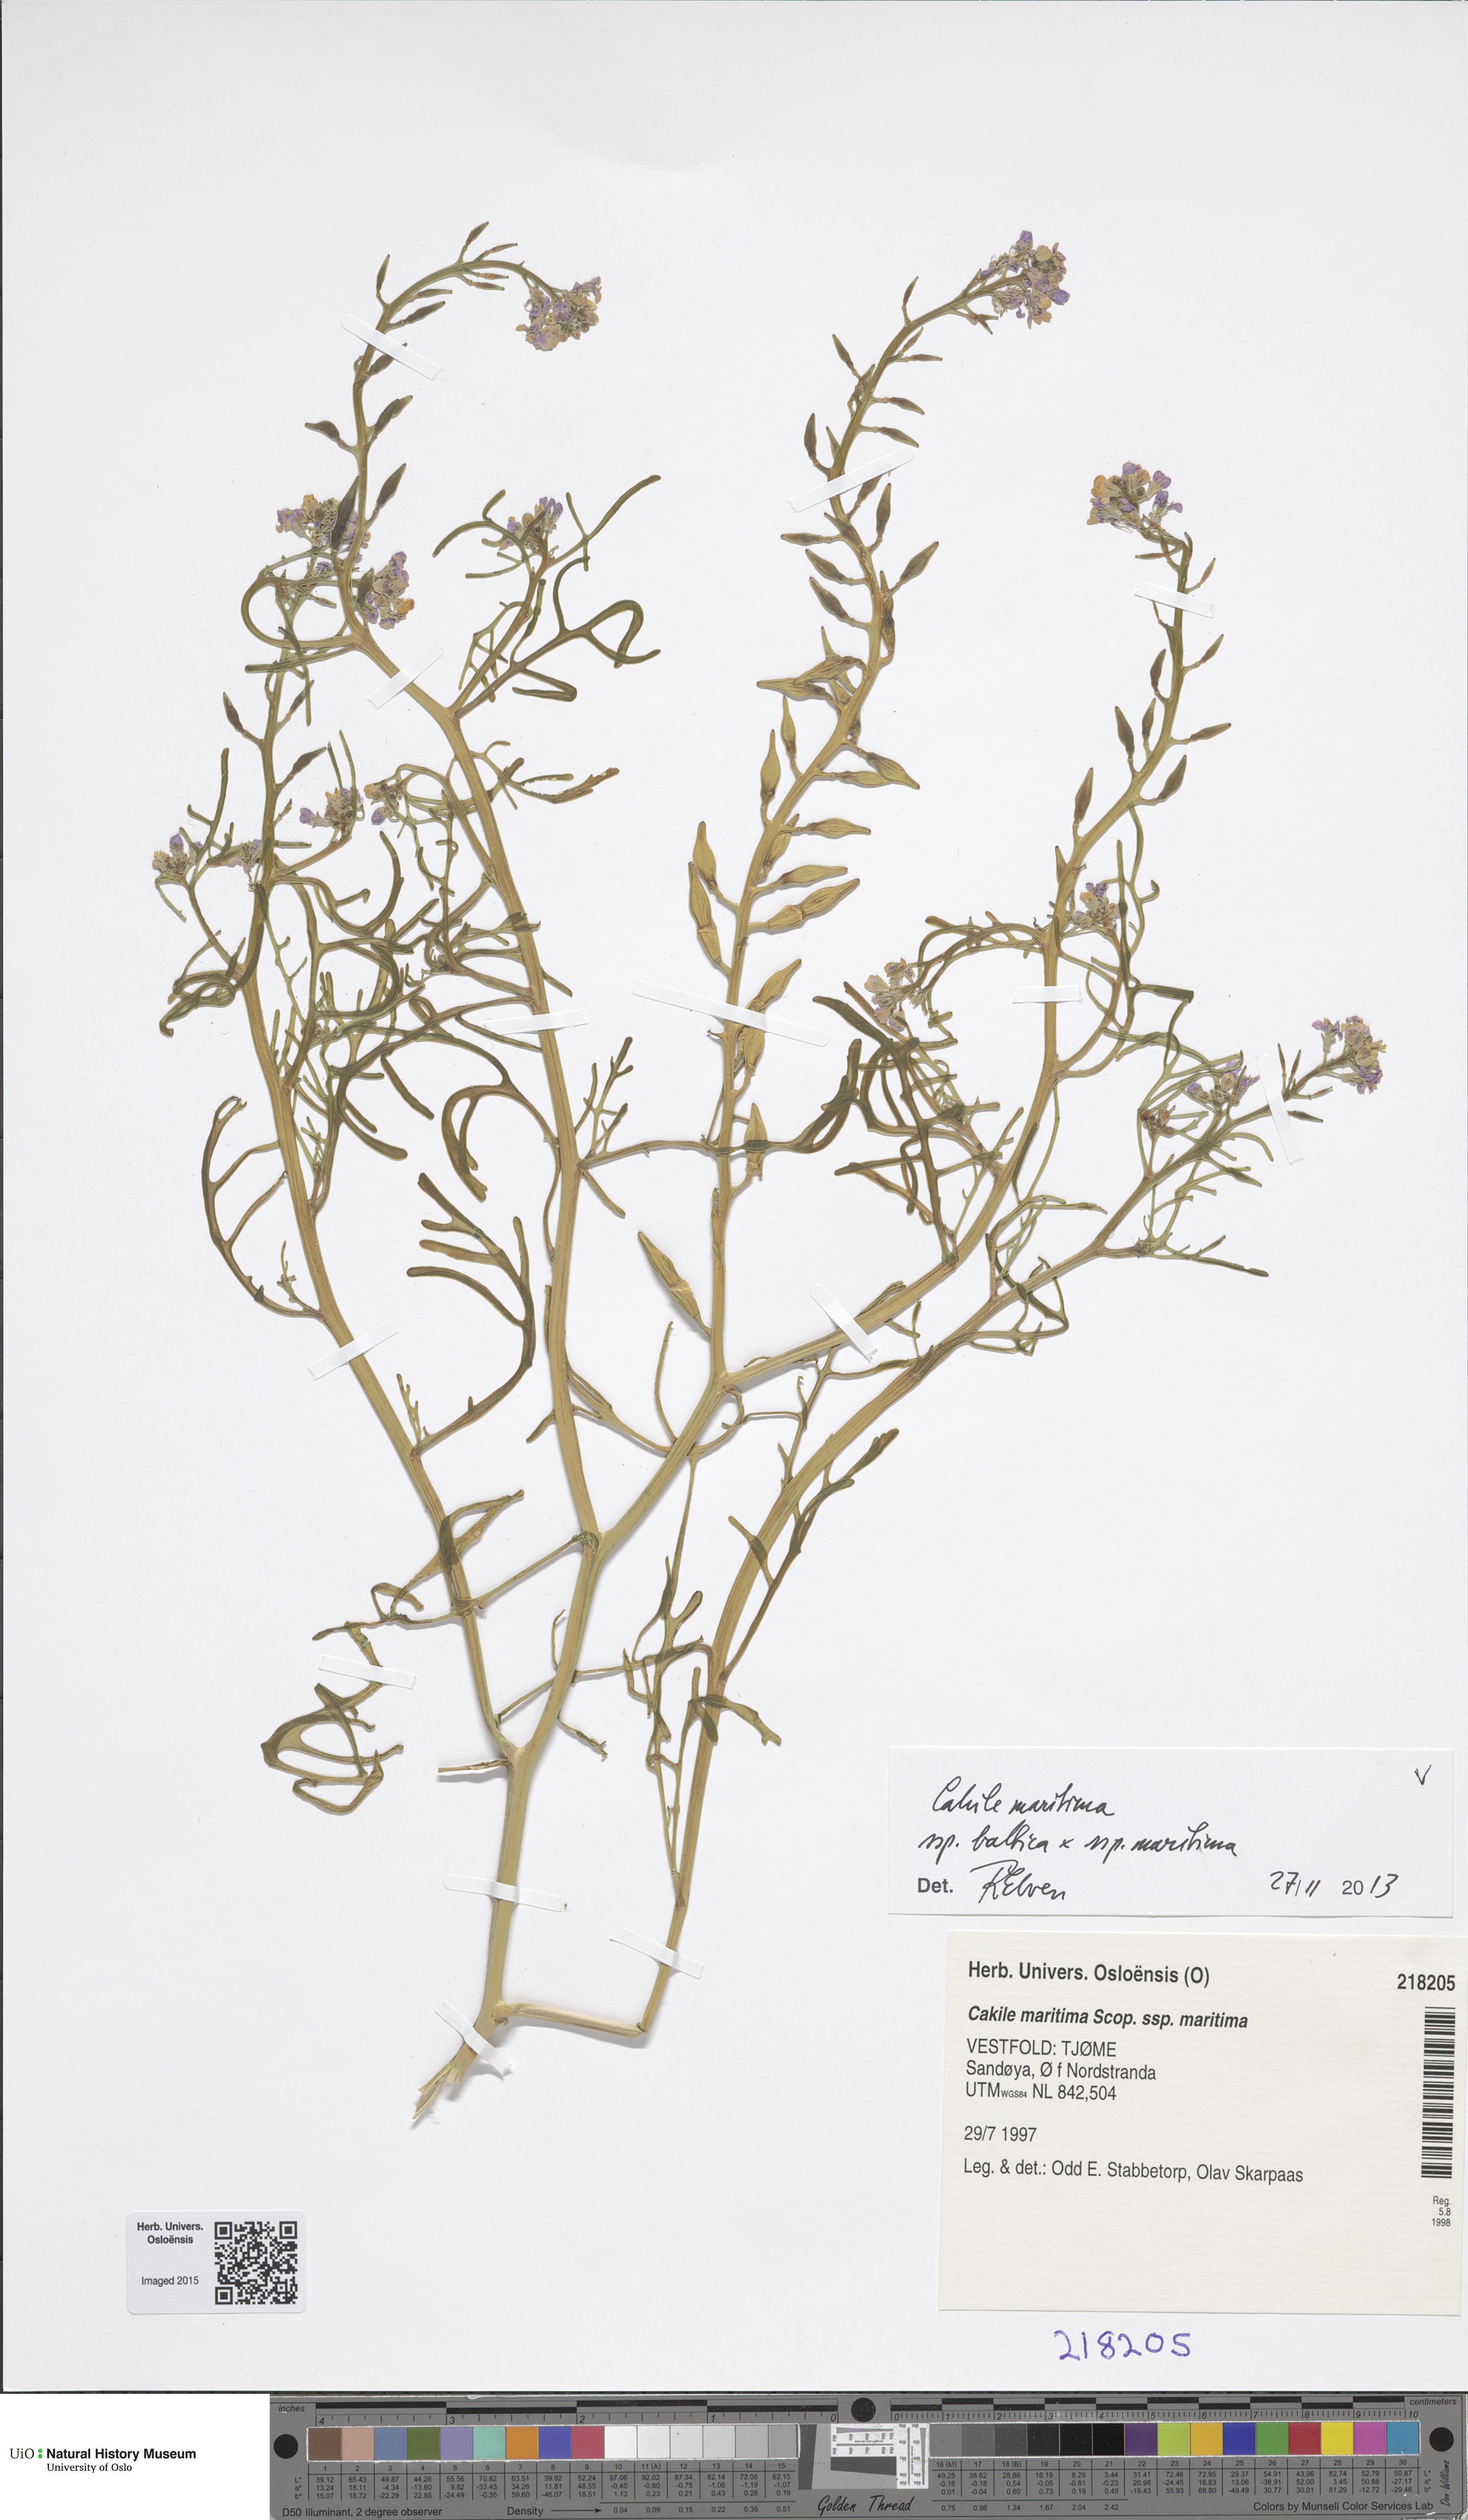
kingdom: Plantae
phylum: Tracheophyta
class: Magnoliopsida
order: Brassicales
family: Brassicaceae
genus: Cakile
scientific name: Cakile
